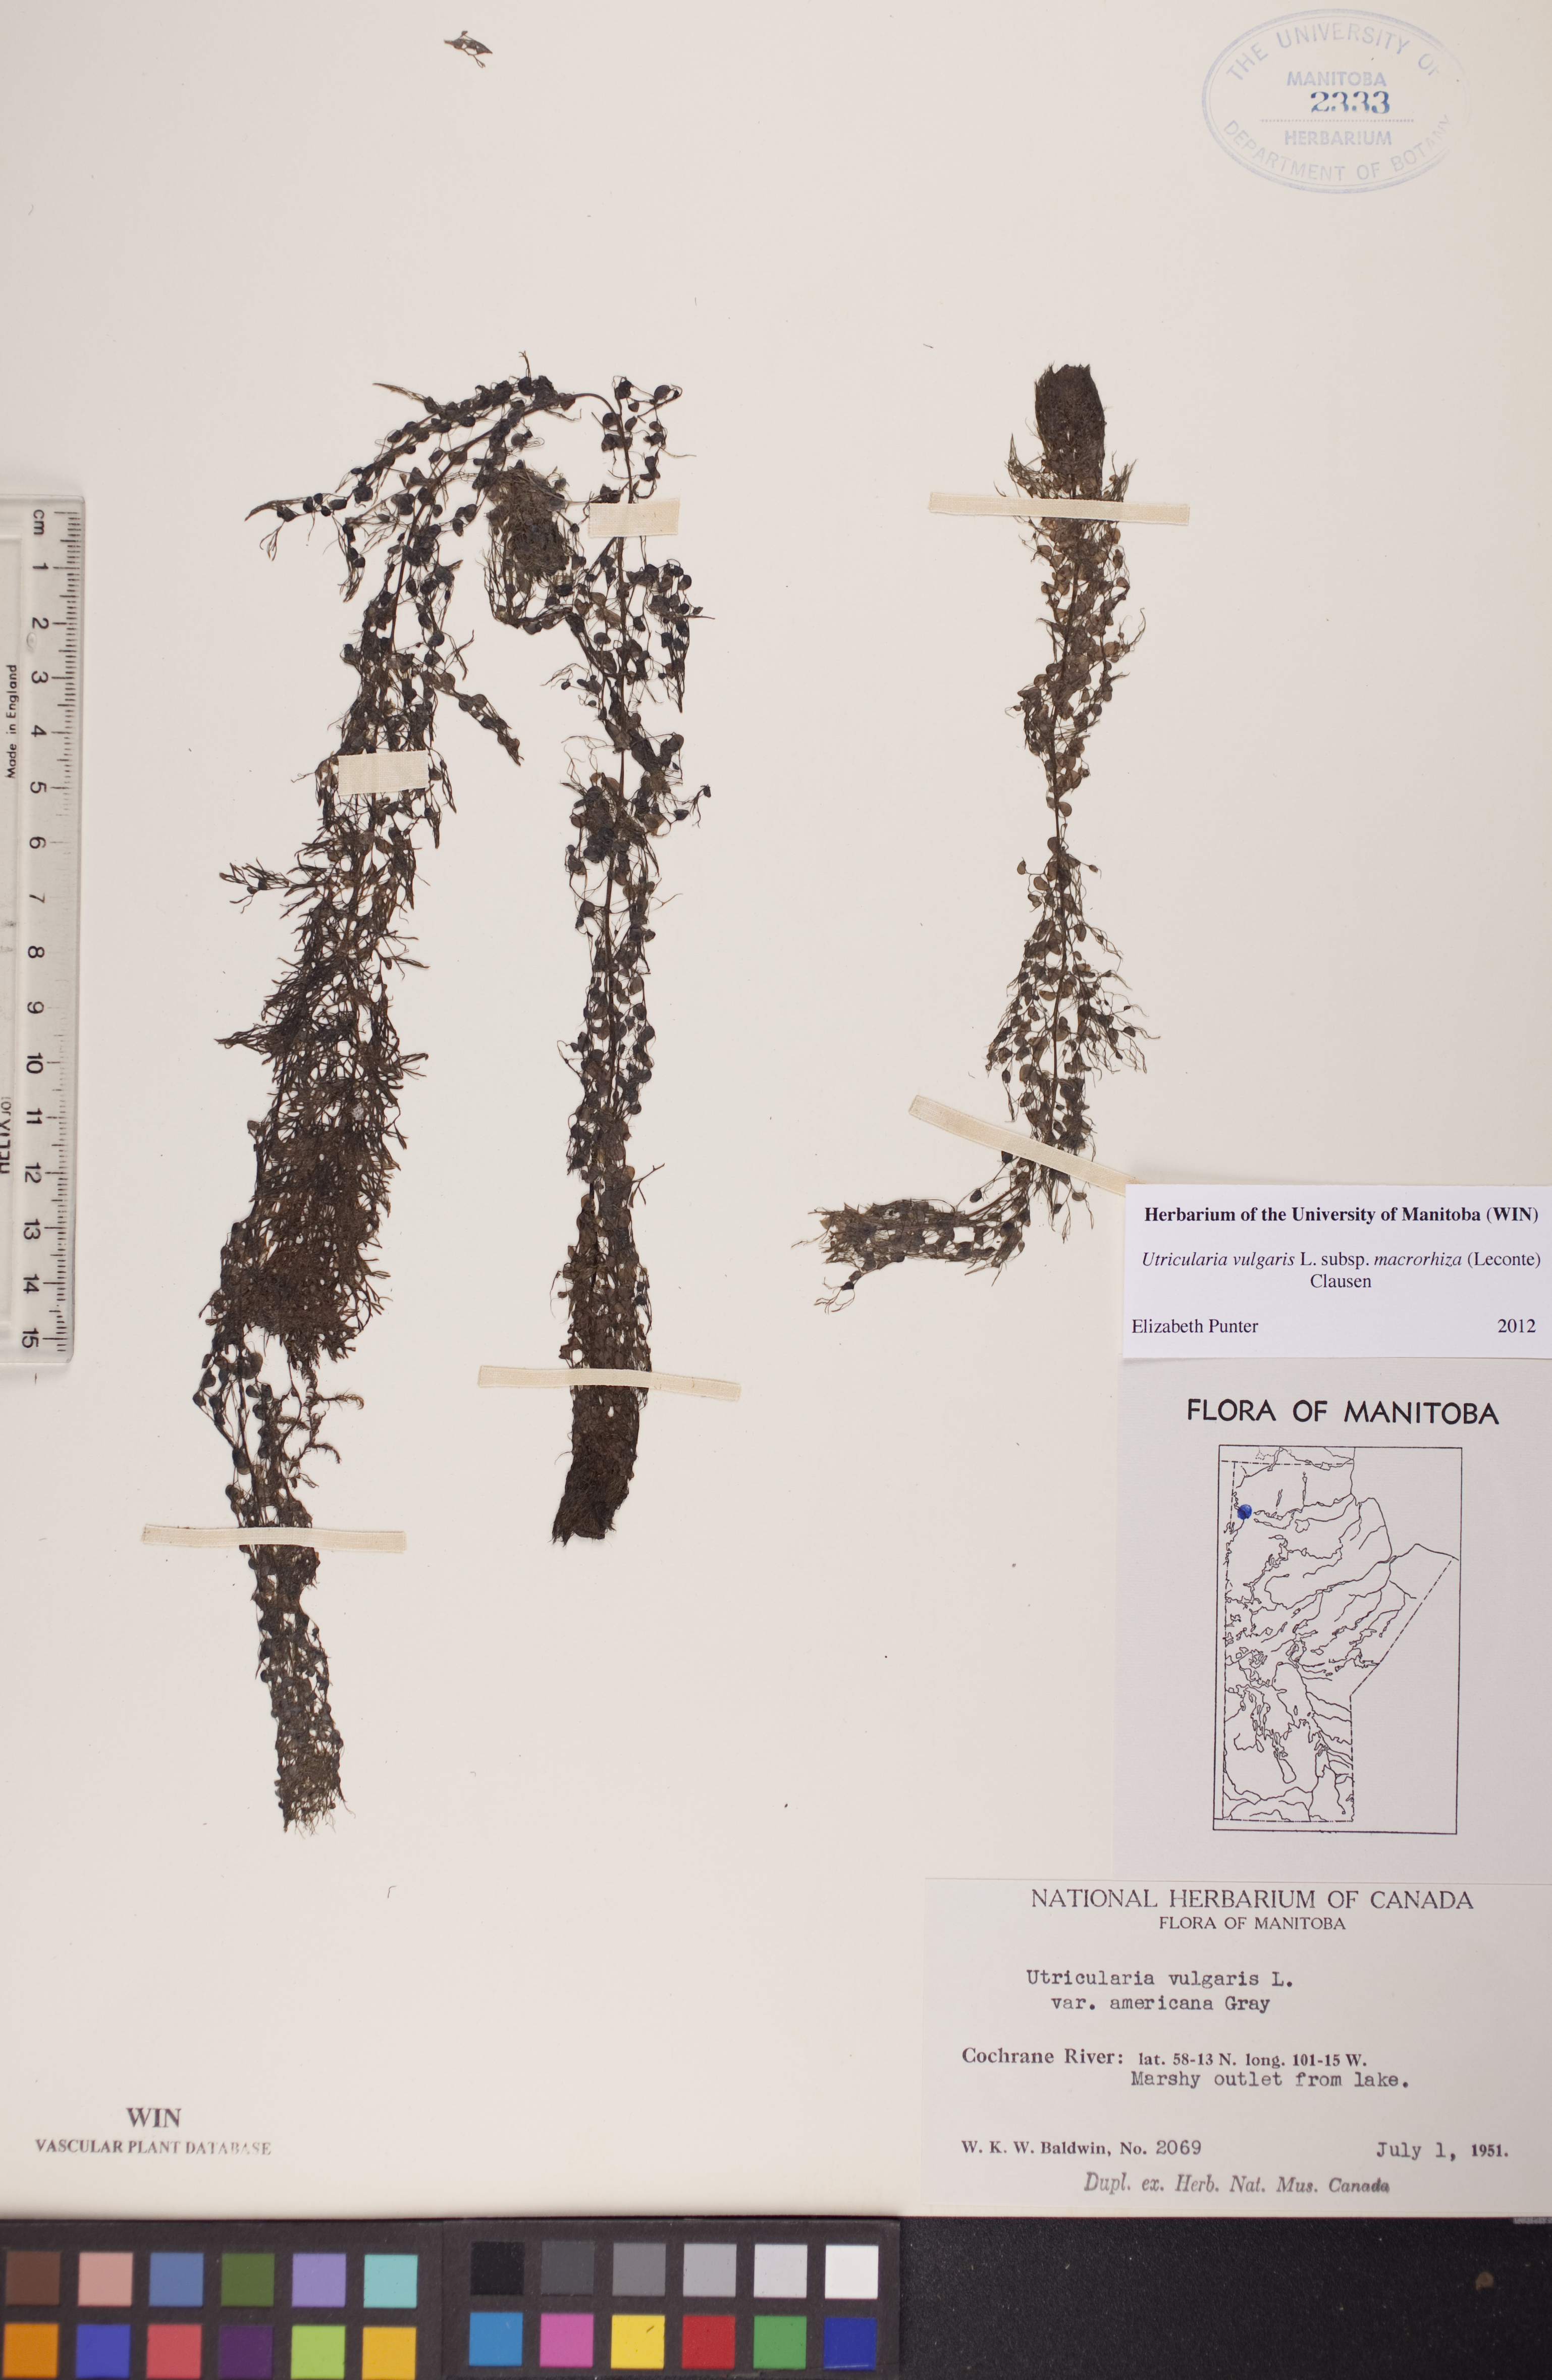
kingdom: Plantae
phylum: Tracheophyta
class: Magnoliopsida
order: Lamiales
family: Lentibulariaceae
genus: Utricularia
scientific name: Utricularia macrorhiza
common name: Common bladderwort
